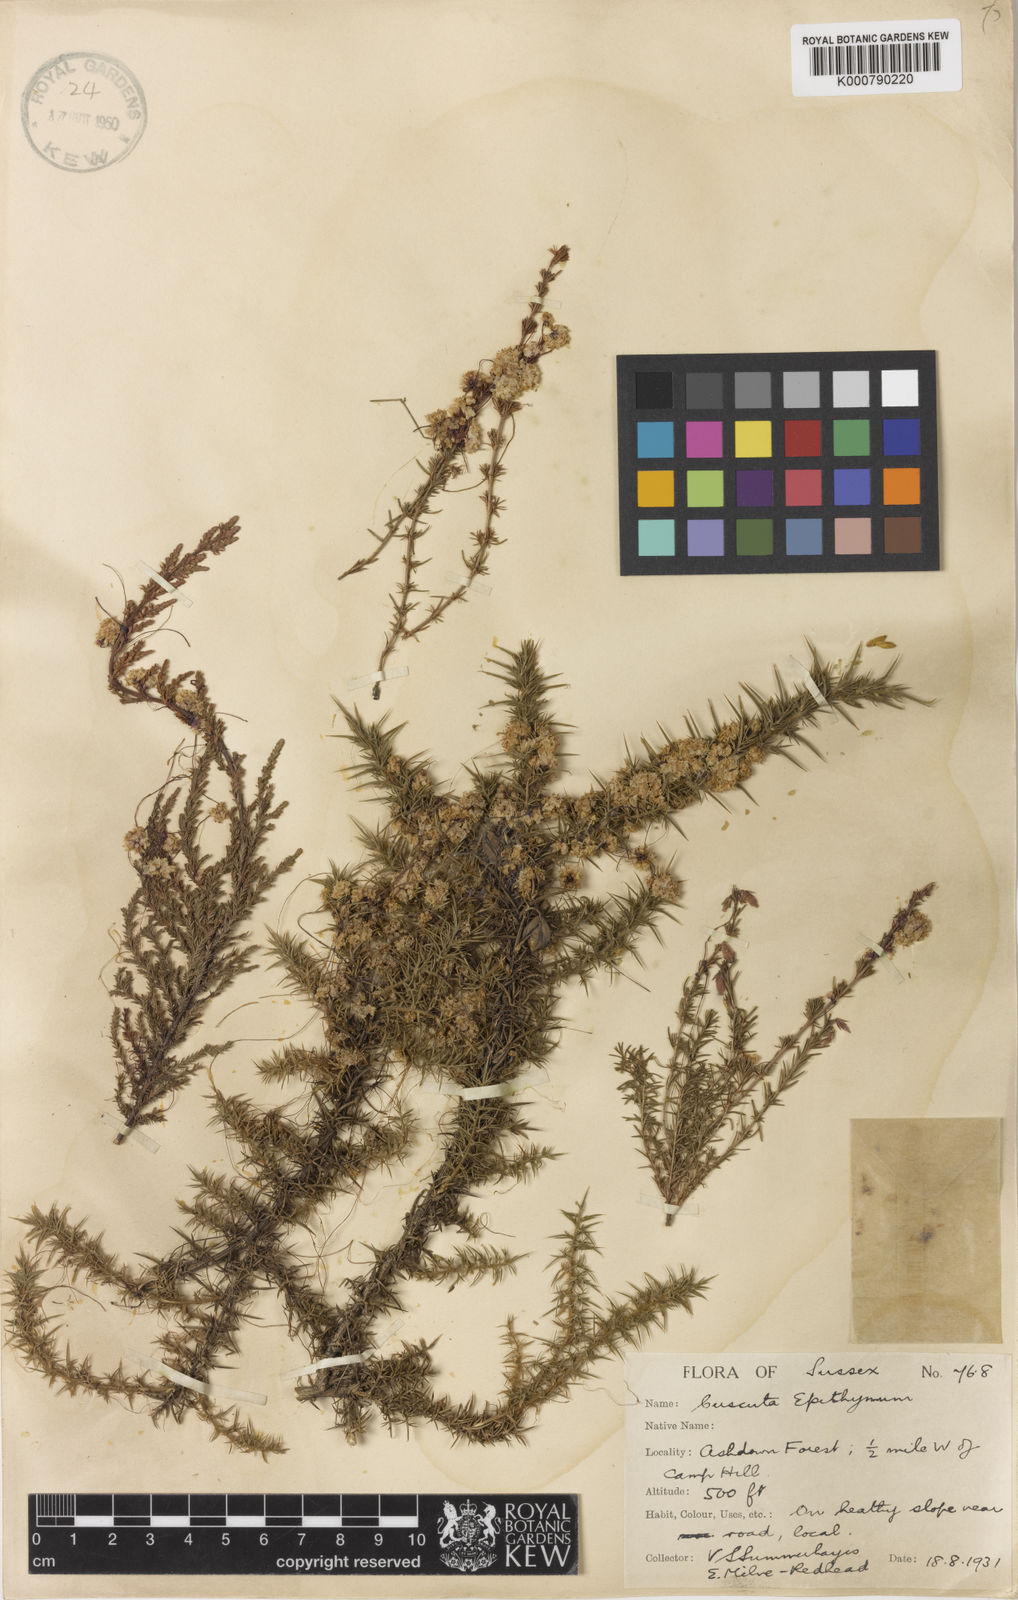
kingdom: Plantae
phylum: Tracheophyta
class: Magnoliopsida
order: Solanales
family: Convolvulaceae
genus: Cuscuta
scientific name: Cuscuta epithymum
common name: Clover dodder
